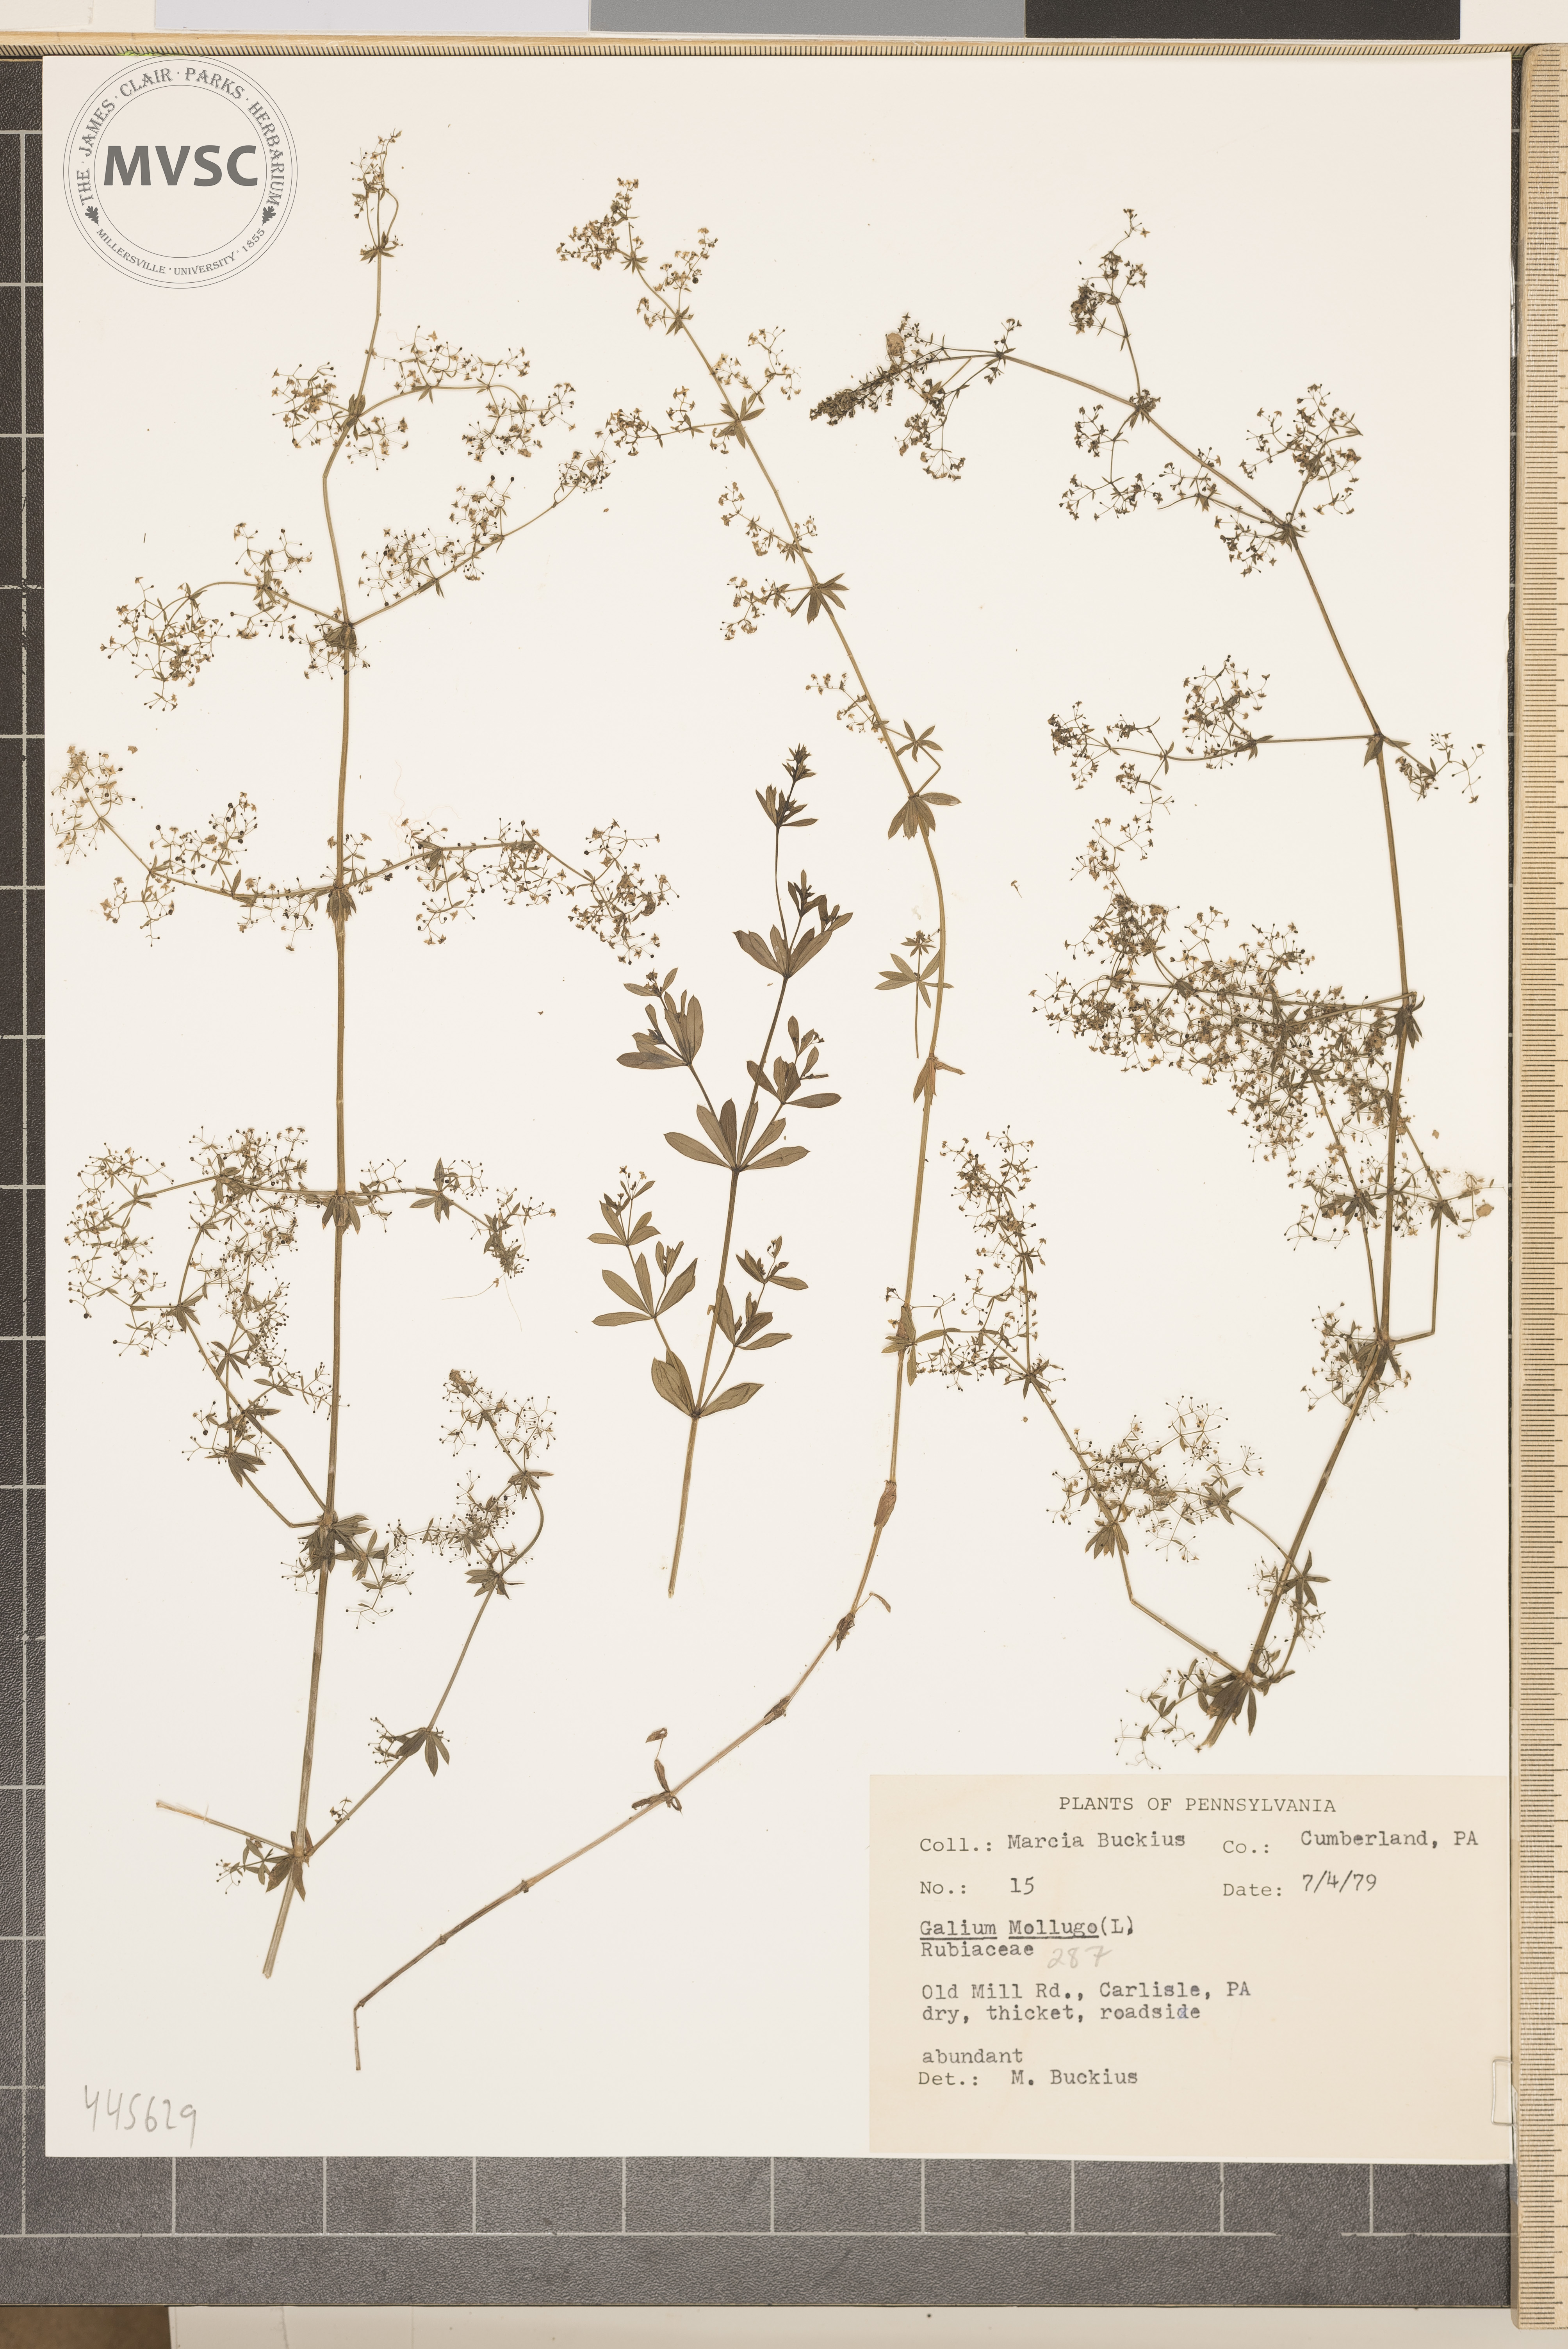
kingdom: Plantae
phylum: Tracheophyta
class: Magnoliopsida
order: Gentianales
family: Rubiaceae
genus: Galium
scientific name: Galium mollugo
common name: Hedge bedstraw
